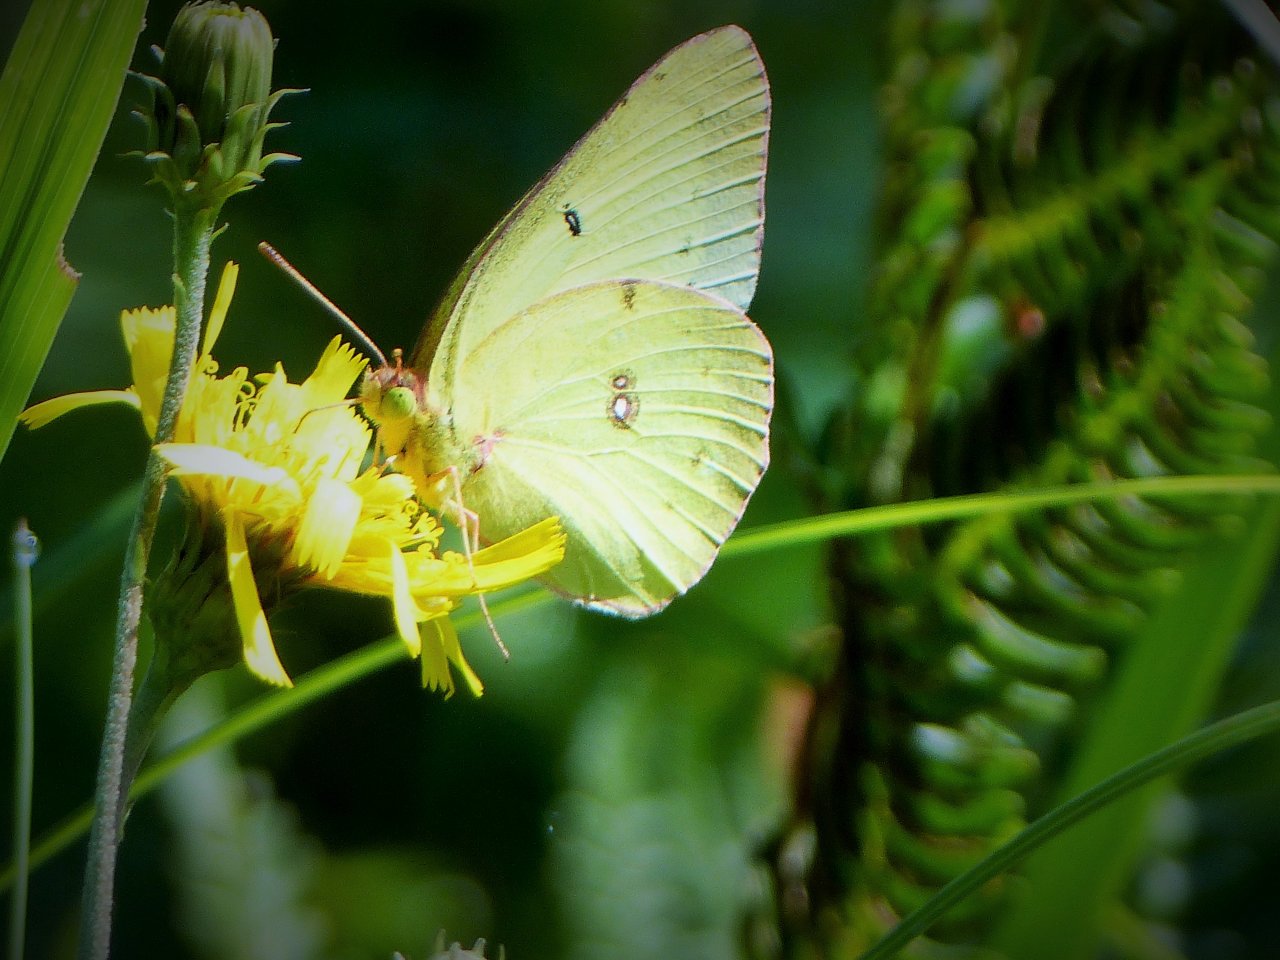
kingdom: Animalia
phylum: Arthropoda
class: Insecta
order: Lepidoptera
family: Pieridae
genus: Colias
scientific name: Colias philodice
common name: Clouded Sulphur
